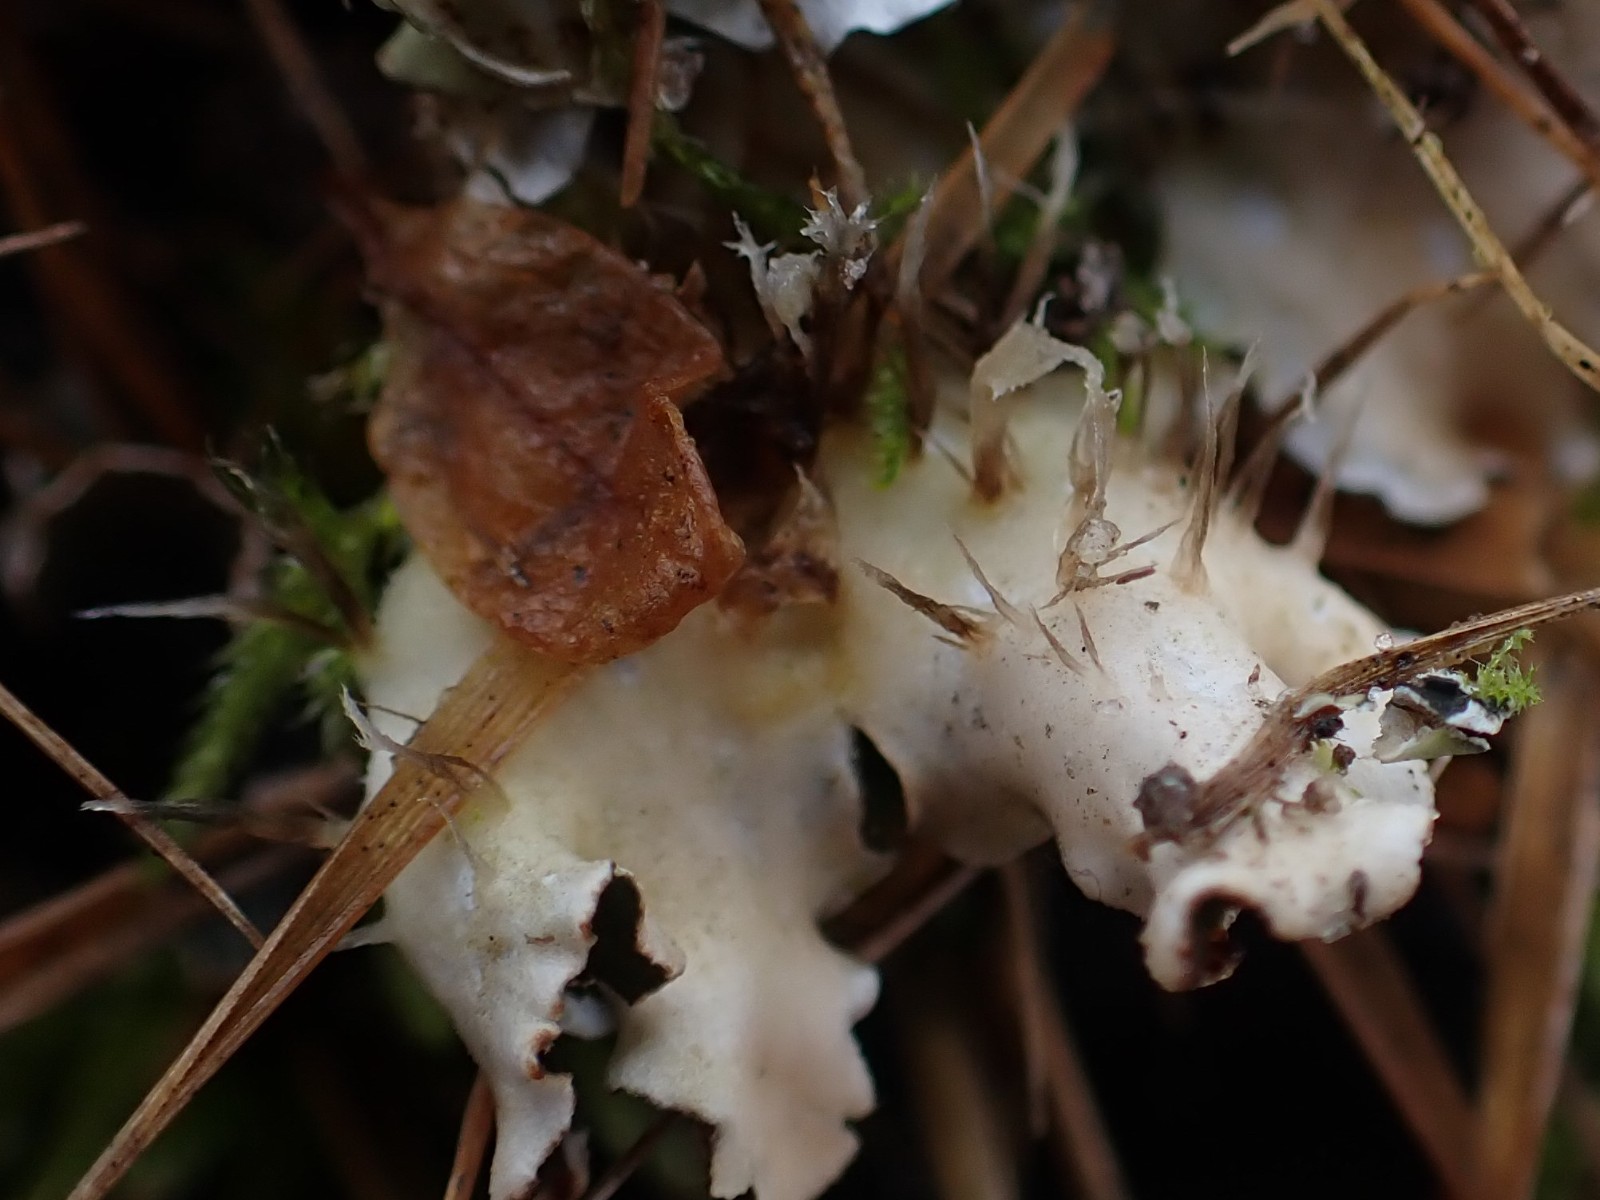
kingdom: Fungi
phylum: Ascomycota
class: Lecanoromycetes
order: Peltigerales
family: Peltigeraceae
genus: Peltigera
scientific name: Peltigera hymenina
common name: hinde-skjoldlav
